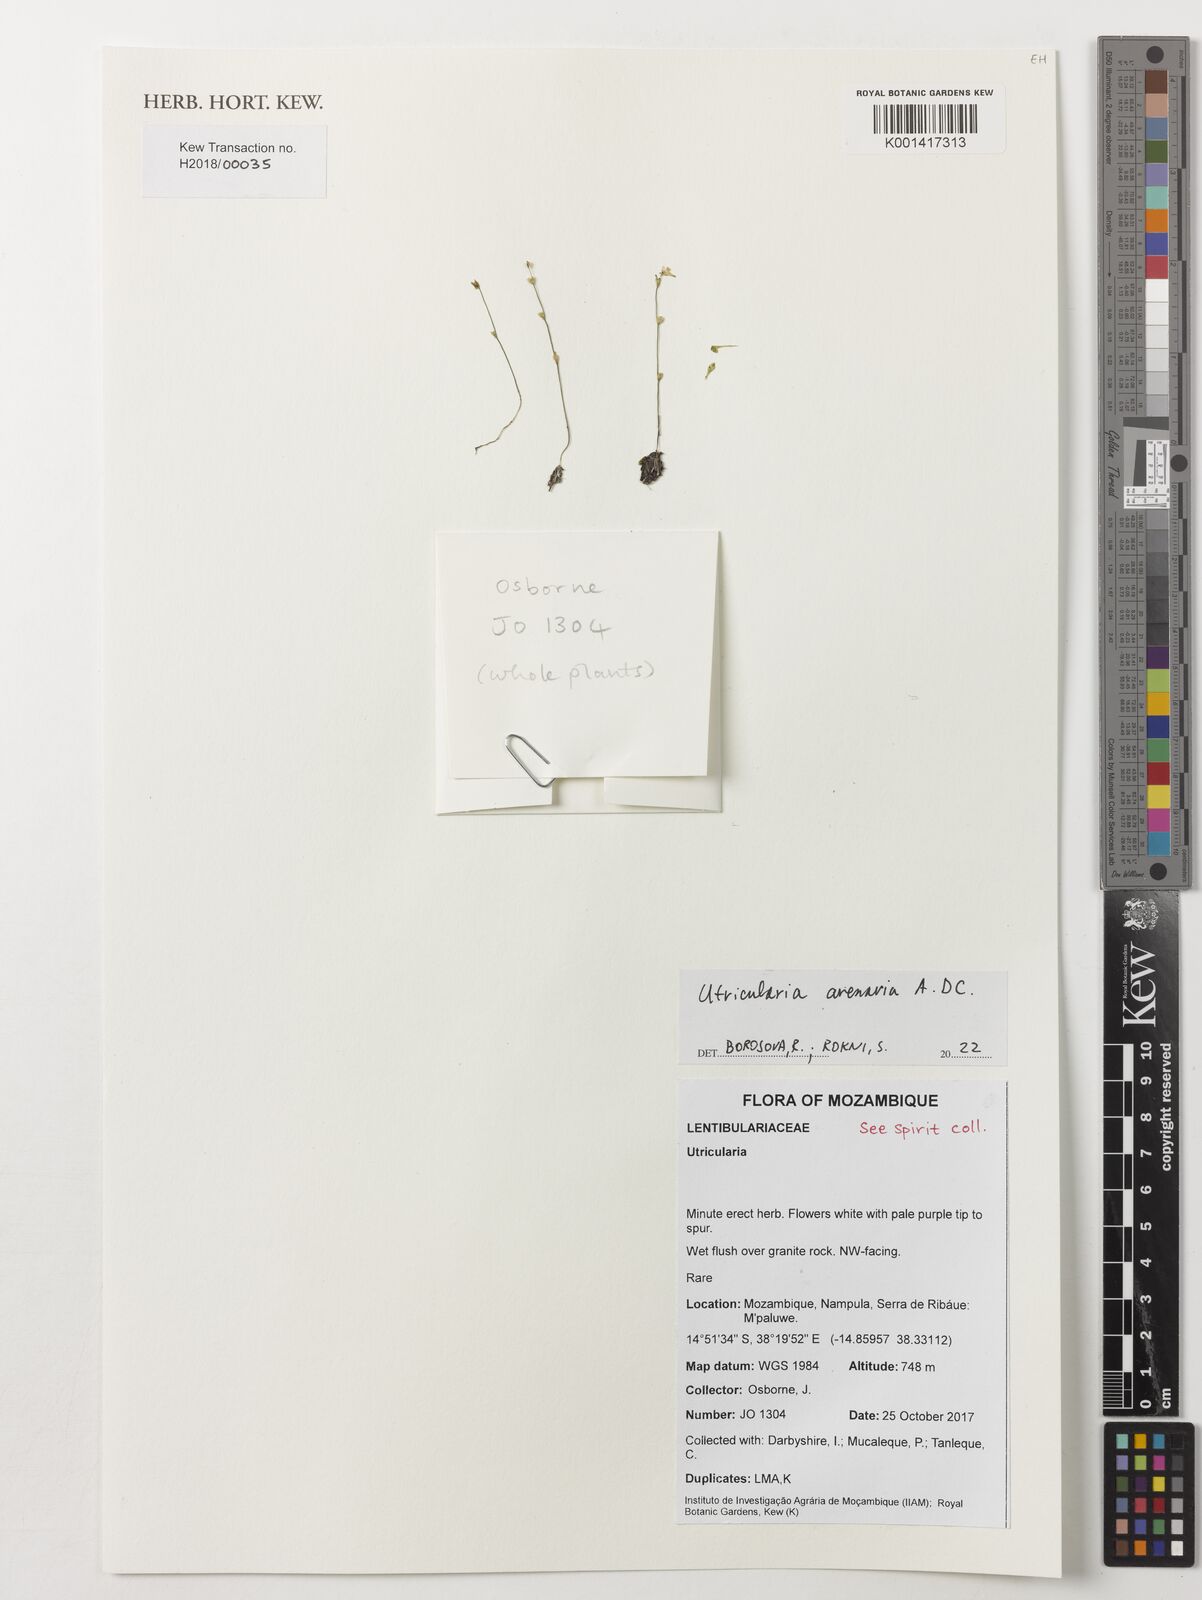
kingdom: Plantae
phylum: Tracheophyta
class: Magnoliopsida
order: Lamiales
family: Lentibulariaceae
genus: Utricularia
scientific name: Utricularia arenaria
